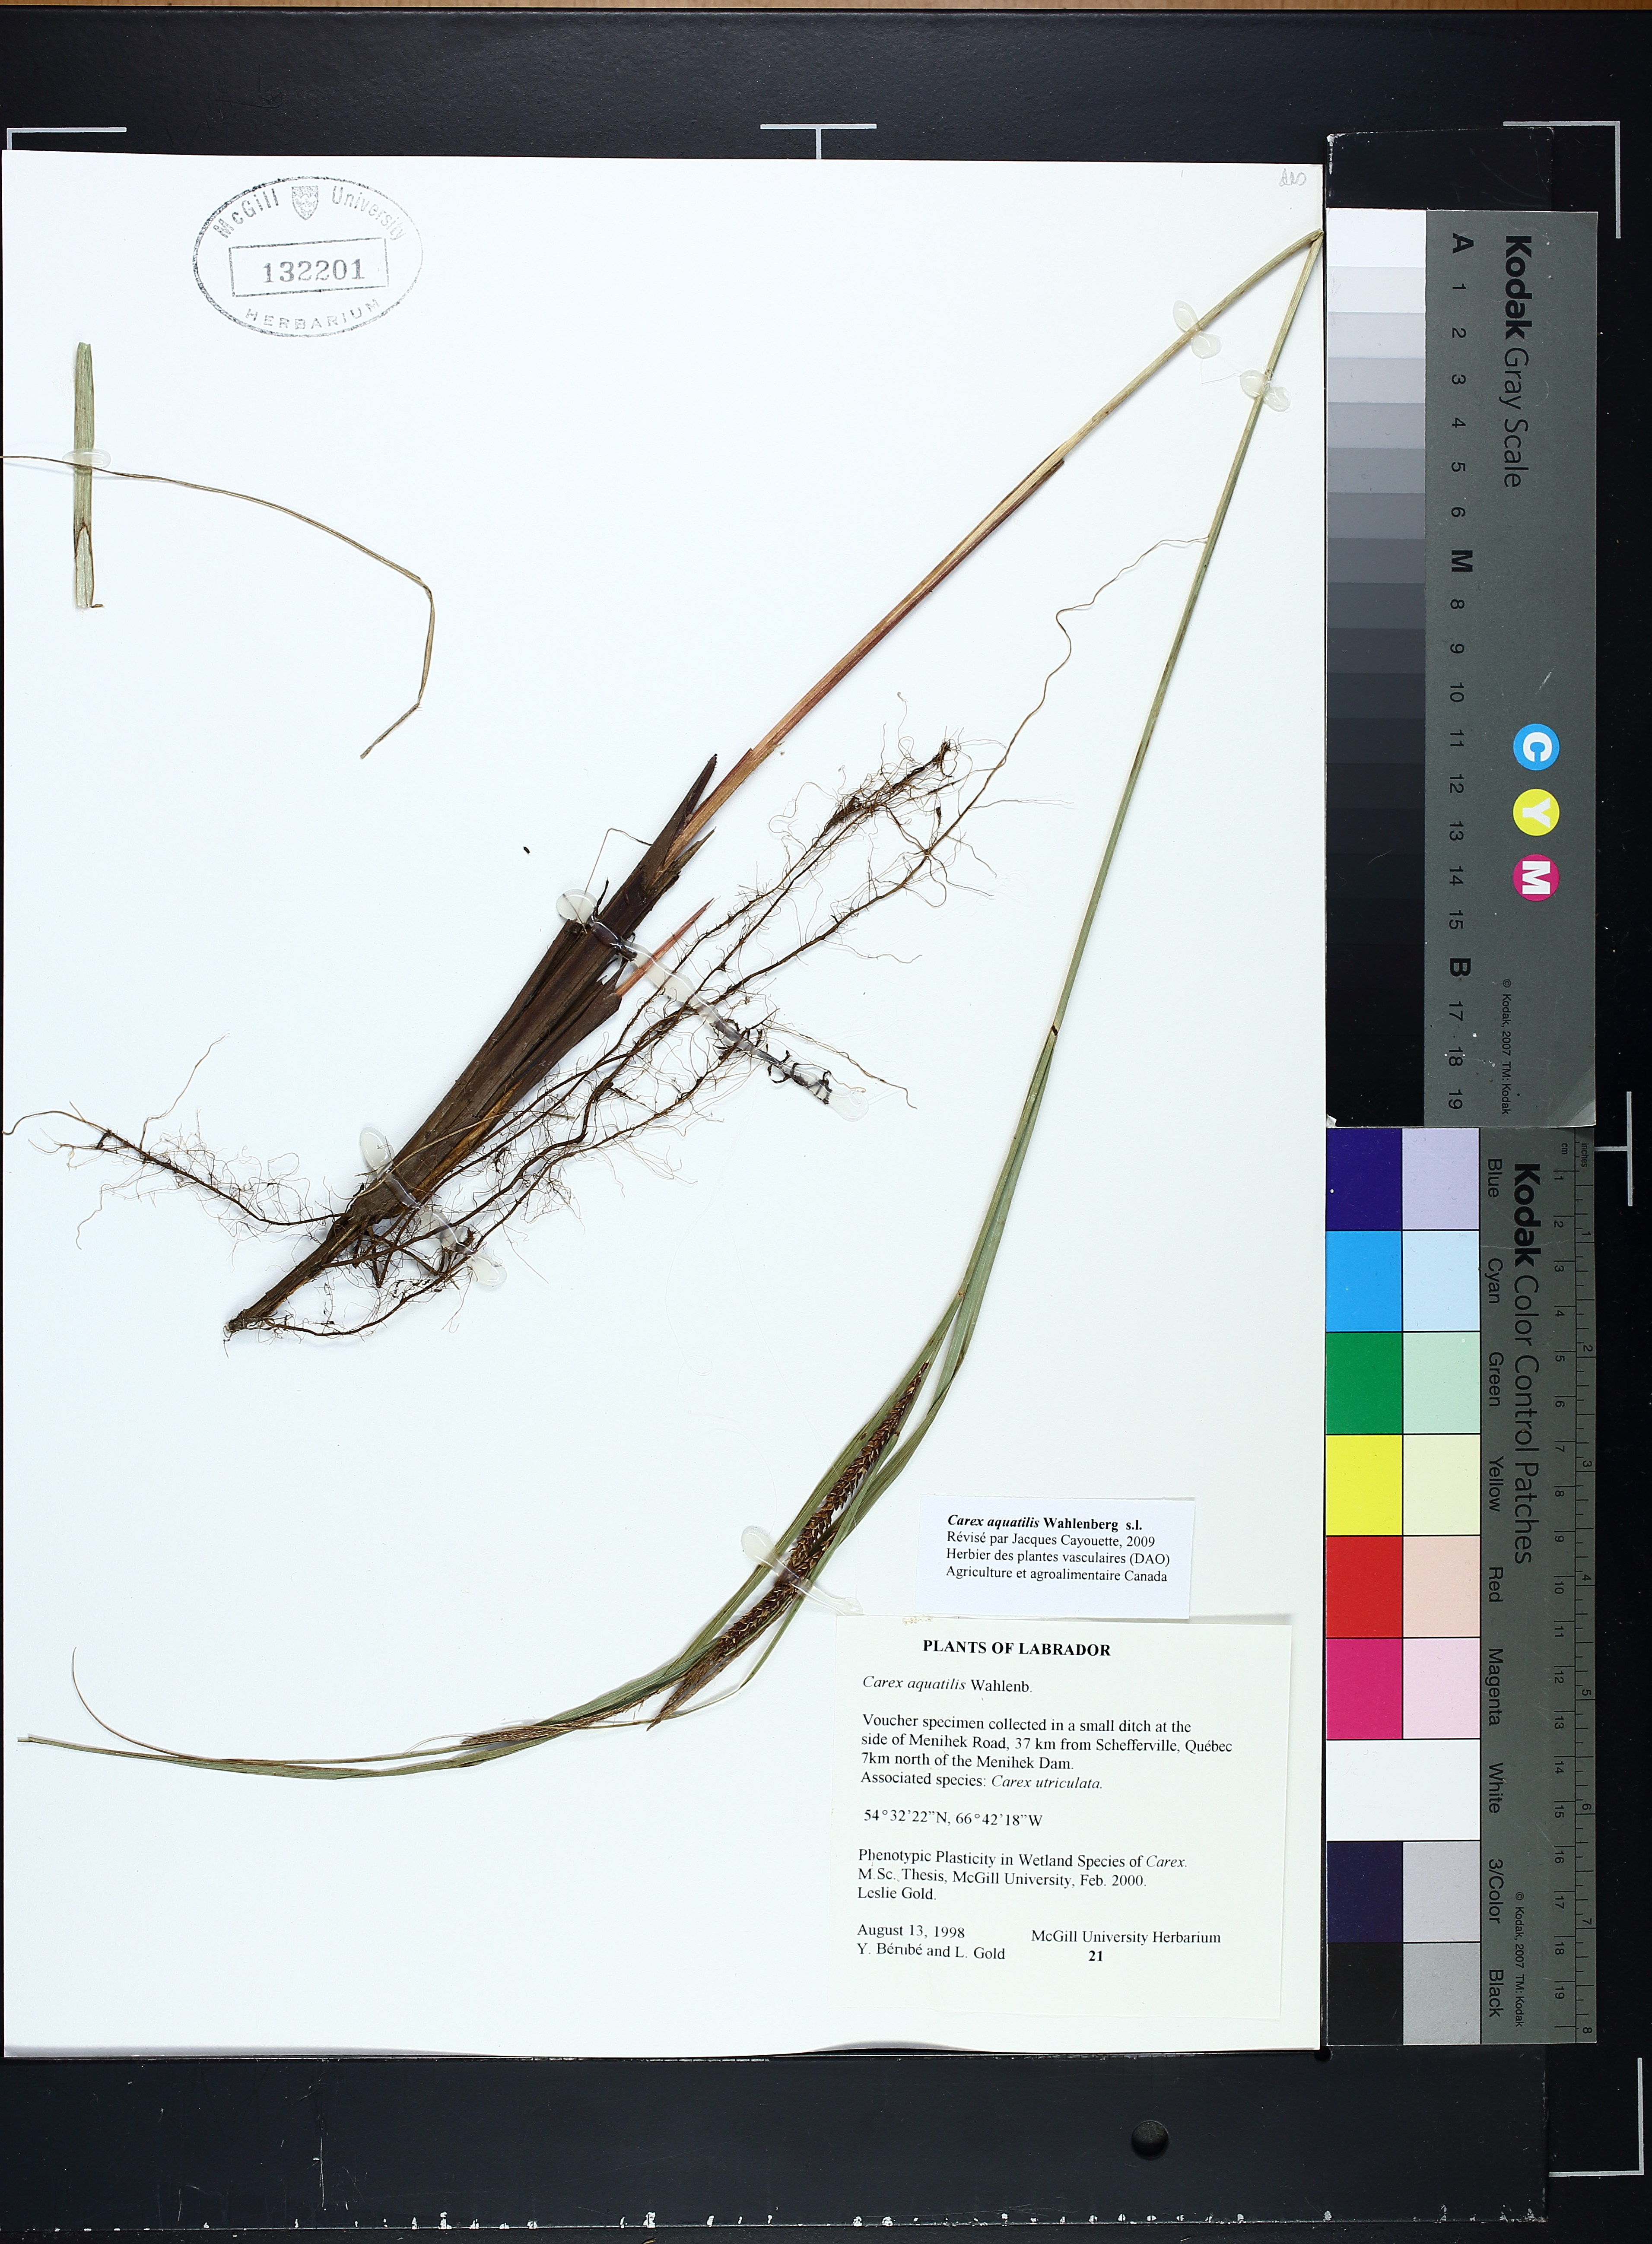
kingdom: Plantae
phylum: Tracheophyta
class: Liliopsida
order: Poales
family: Cyperaceae
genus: Carex
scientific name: Carex aquatilis
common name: Water sedge
